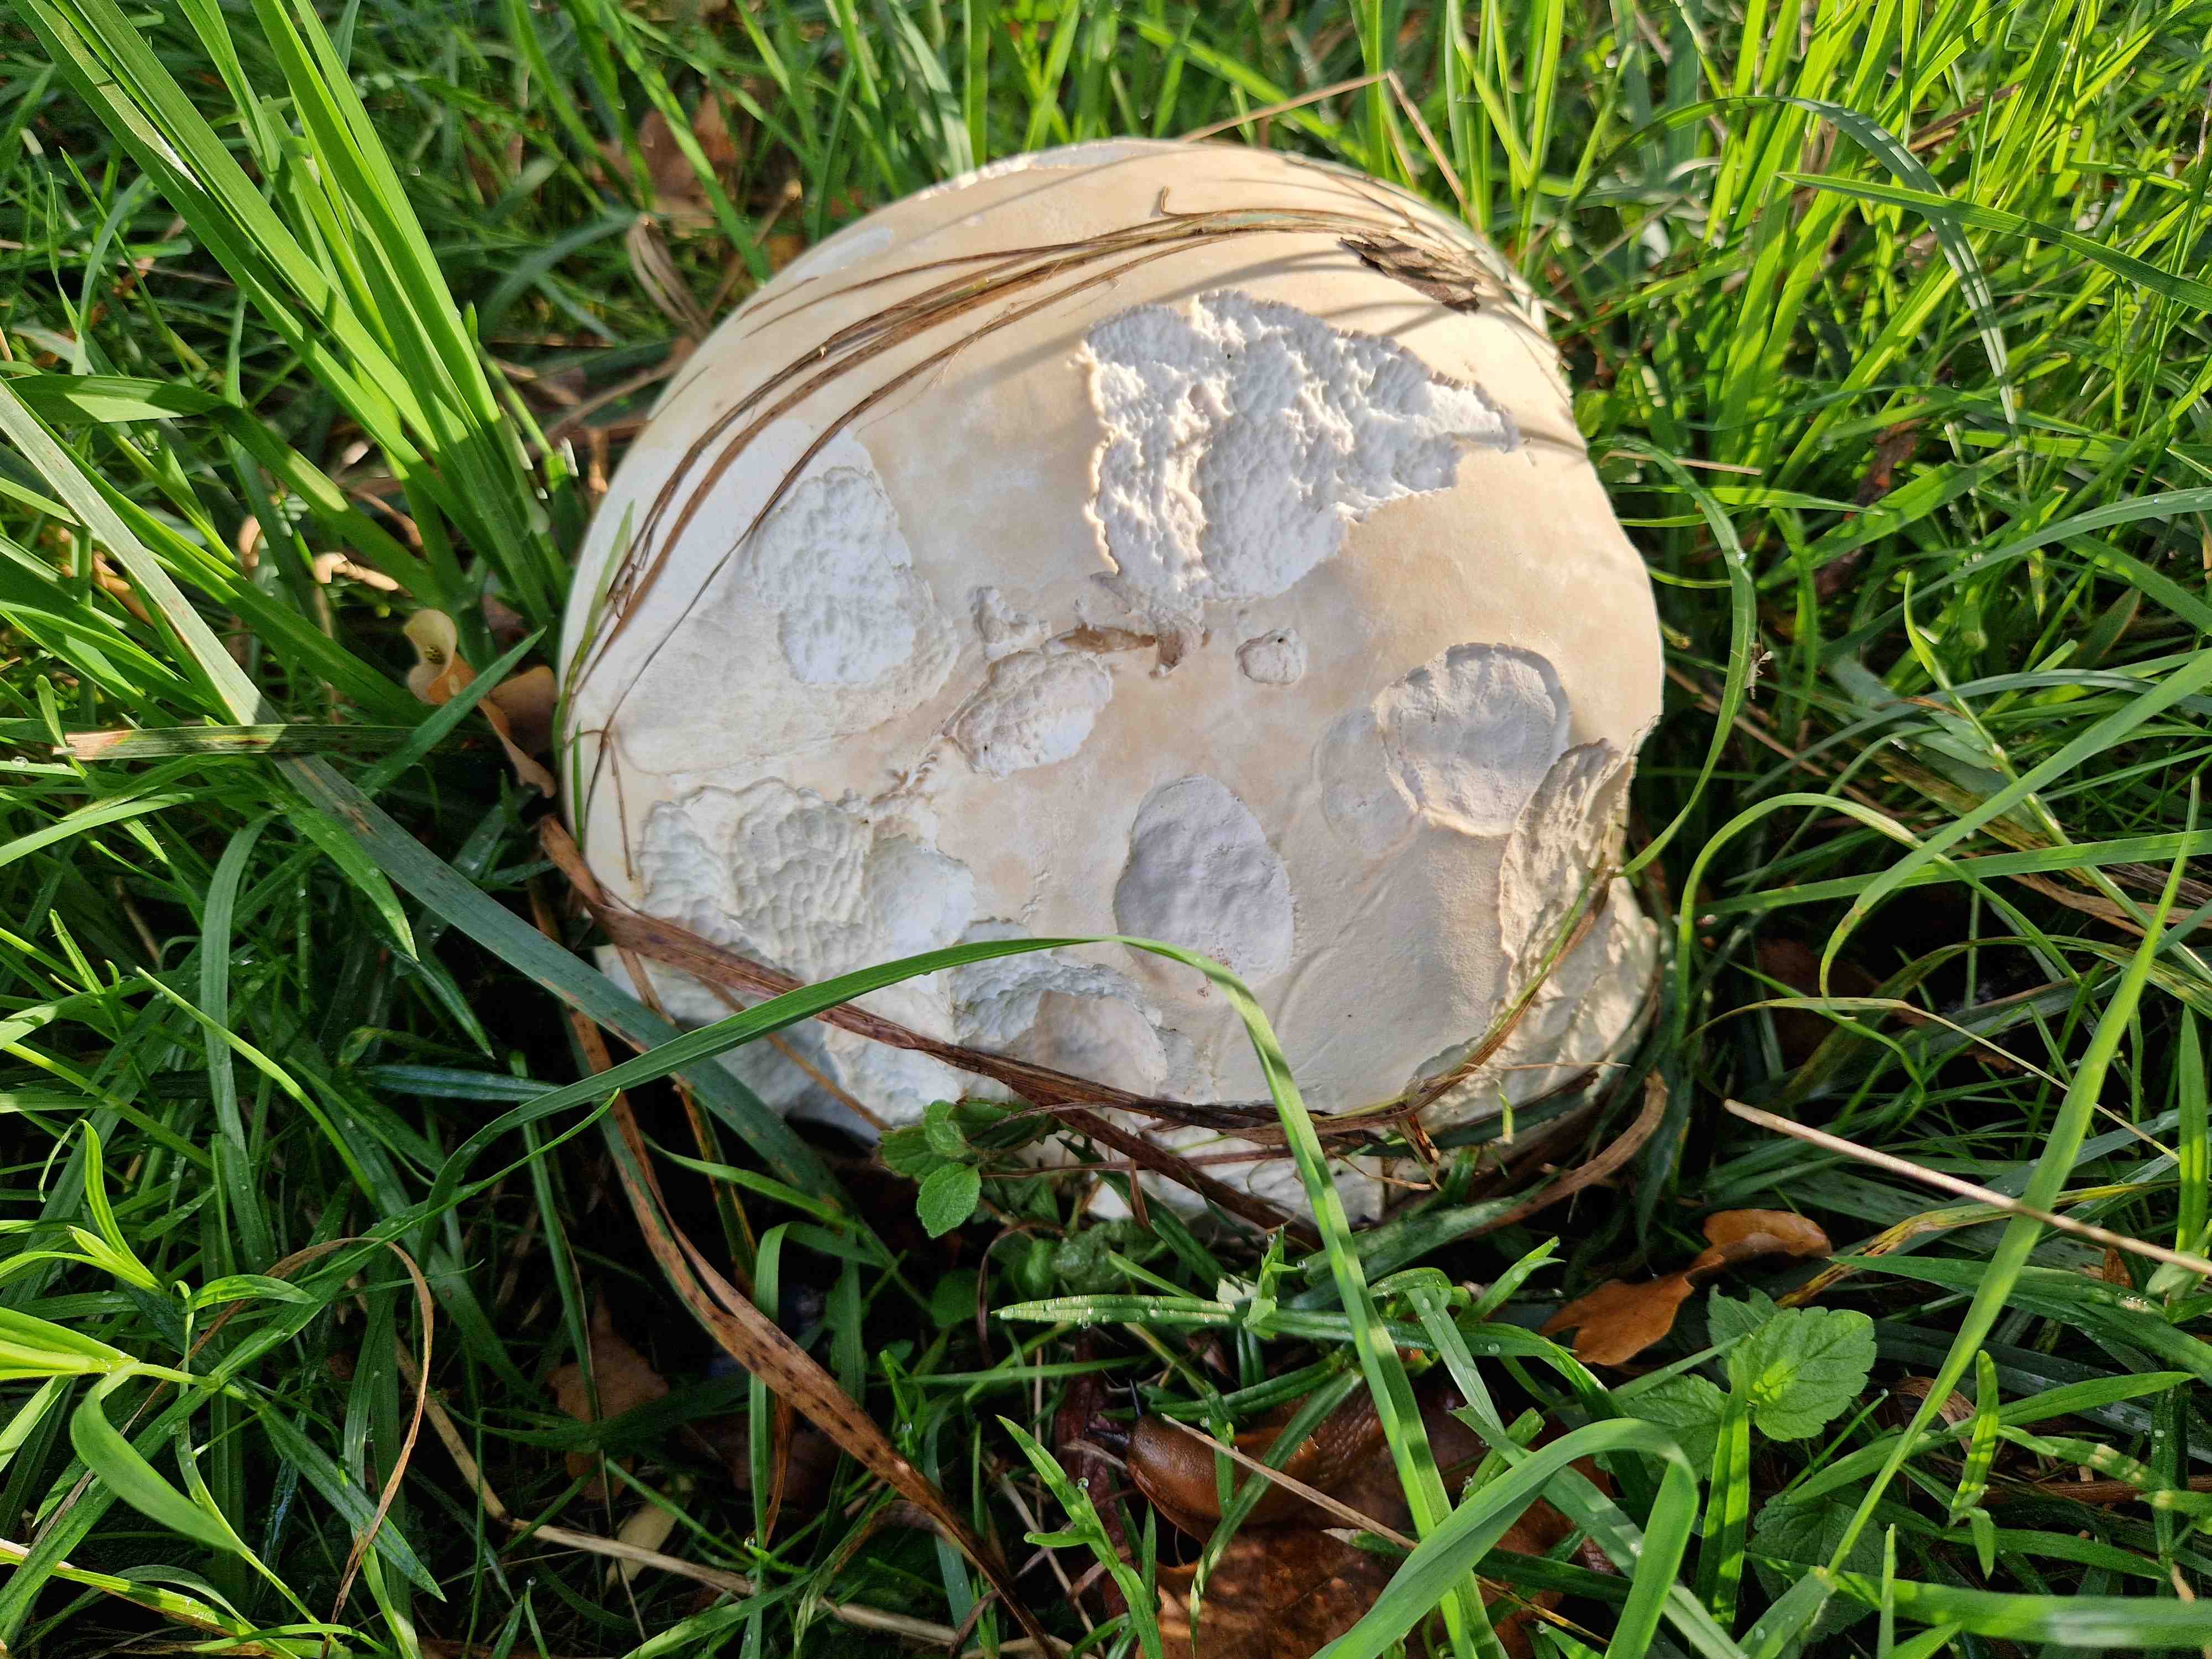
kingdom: Fungi
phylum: Basidiomycota
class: Agaricomycetes
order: Agaricales
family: Lycoperdaceae
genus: Calvatia
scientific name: Calvatia gigantea
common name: kæmpestøvbold
